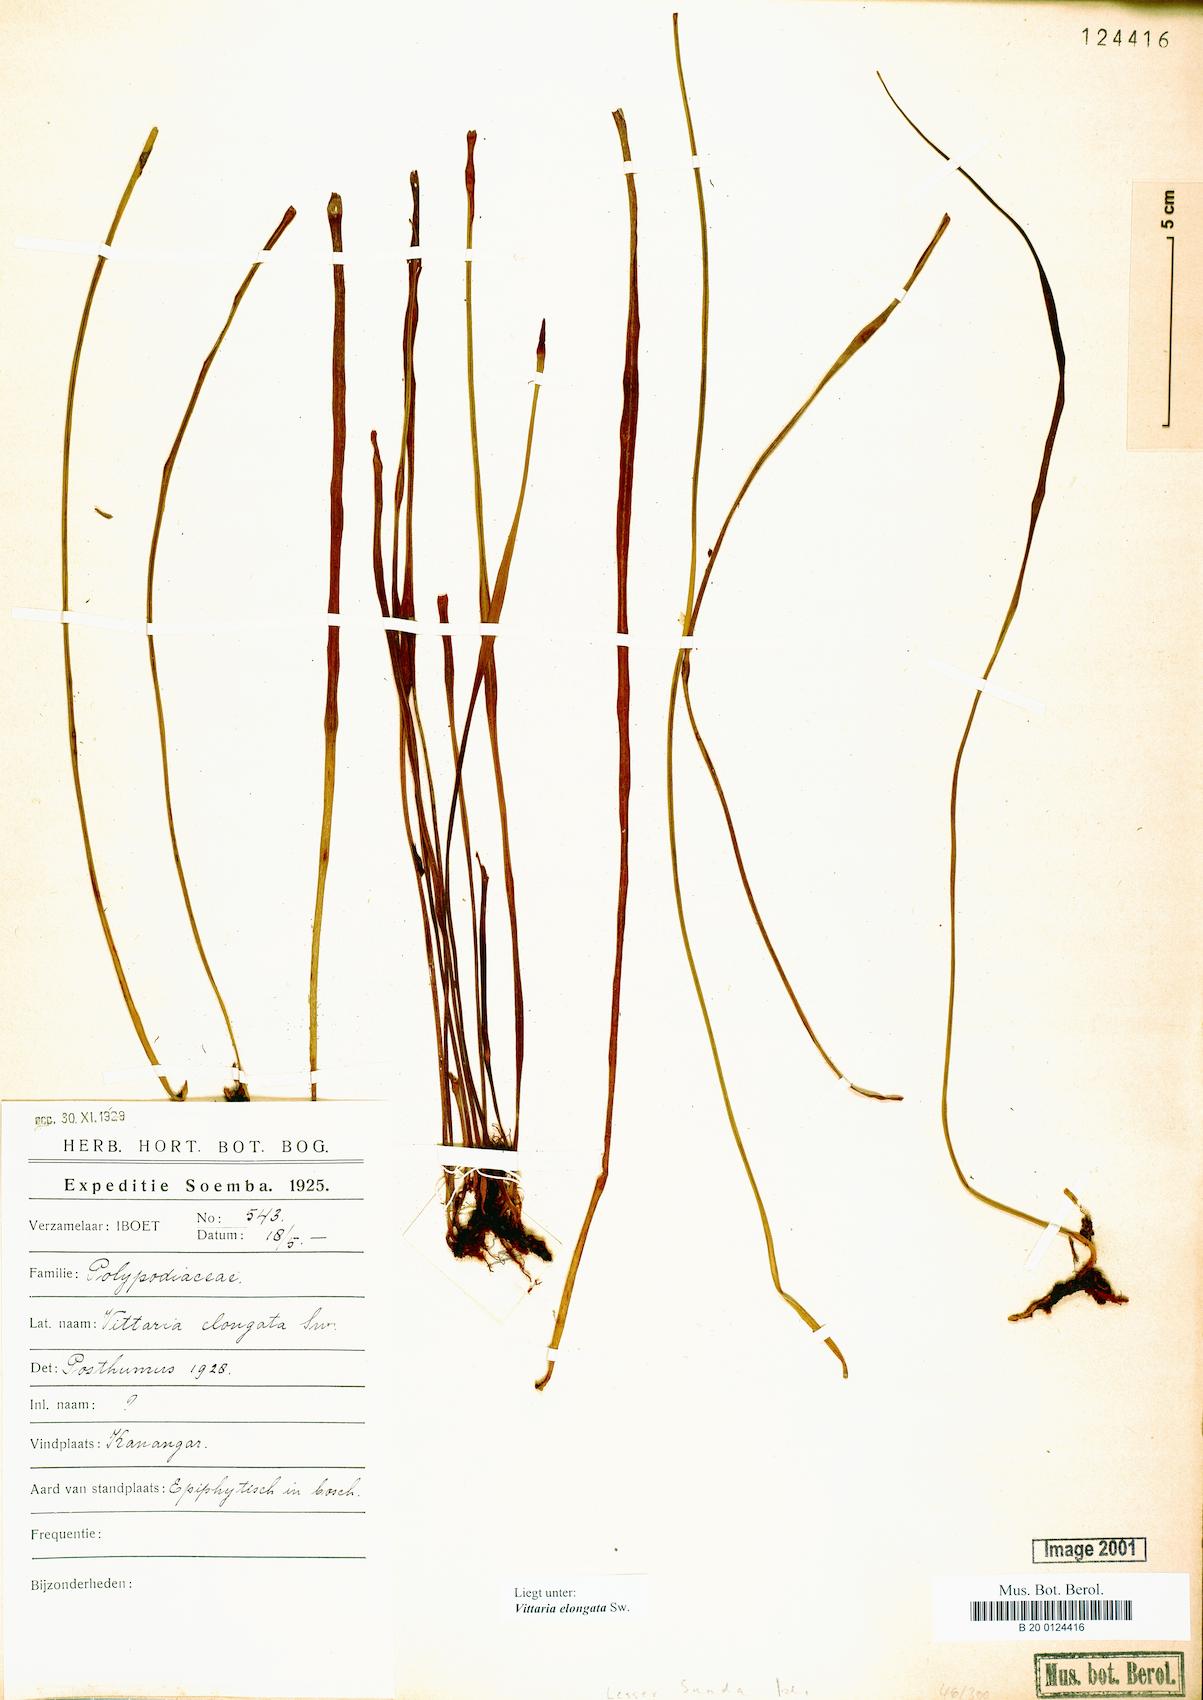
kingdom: Plantae
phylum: Tracheophyta
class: Polypodiopsida
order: Polypodiales
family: Pteridaceae
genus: Haplopteris
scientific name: Haplopteris elongata
